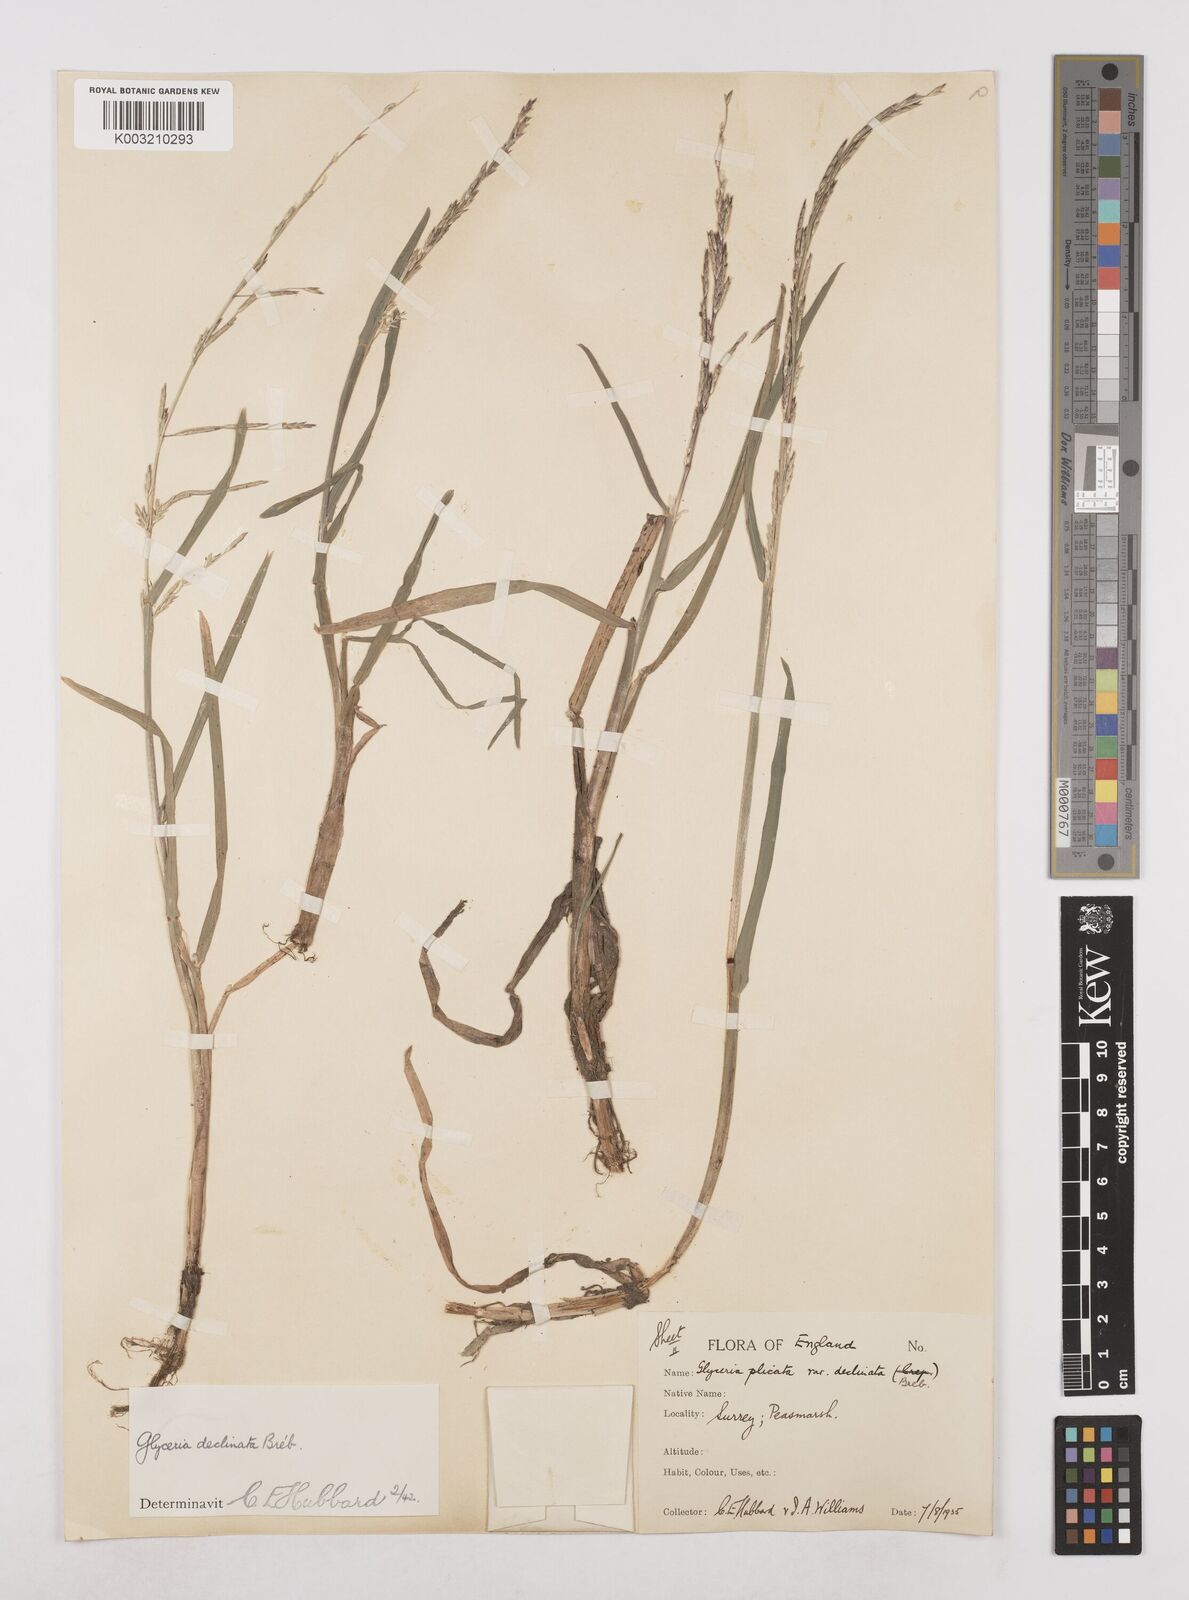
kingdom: Plantae
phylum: Tracheophyta
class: Liliopsida
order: Poales
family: Poaceae
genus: Glyceria
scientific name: Glyceria declinata
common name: Small sweet-grass
